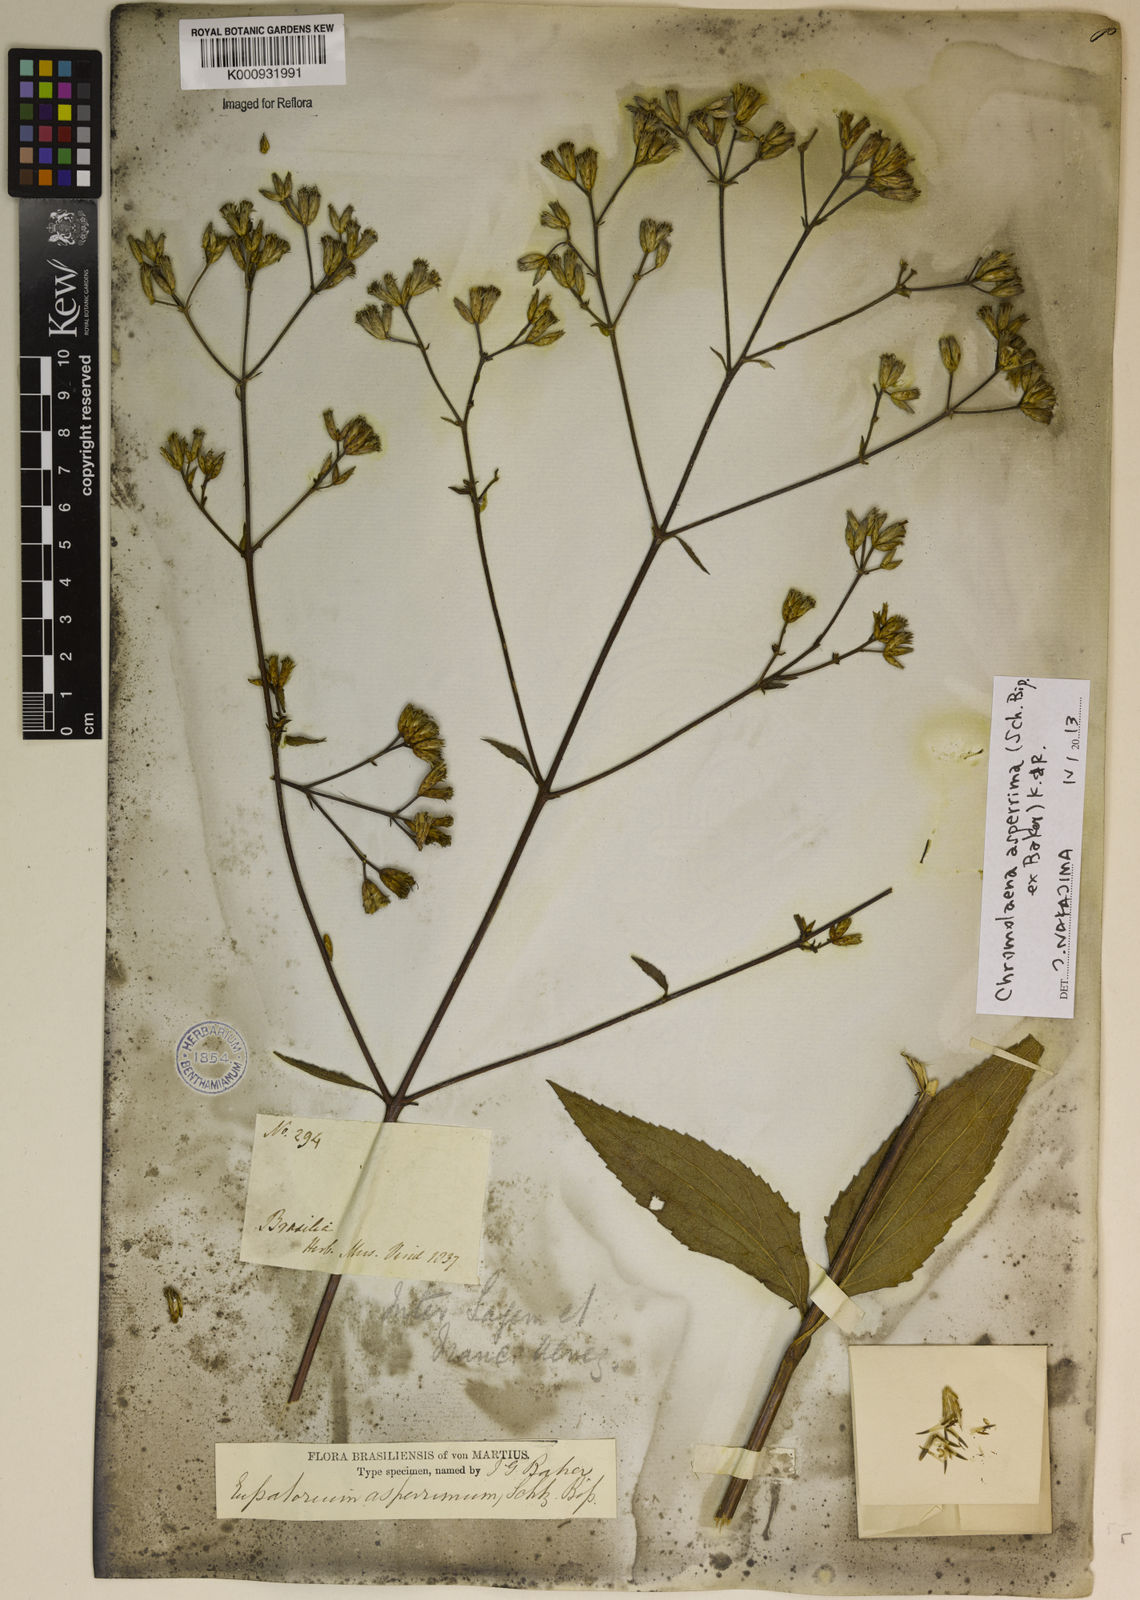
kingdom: Plantae
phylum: Tracheophyta
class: Magnoliopsida
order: Asterales
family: Asteraceae
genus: Chromolaena
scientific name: Chromolaena asperrima
